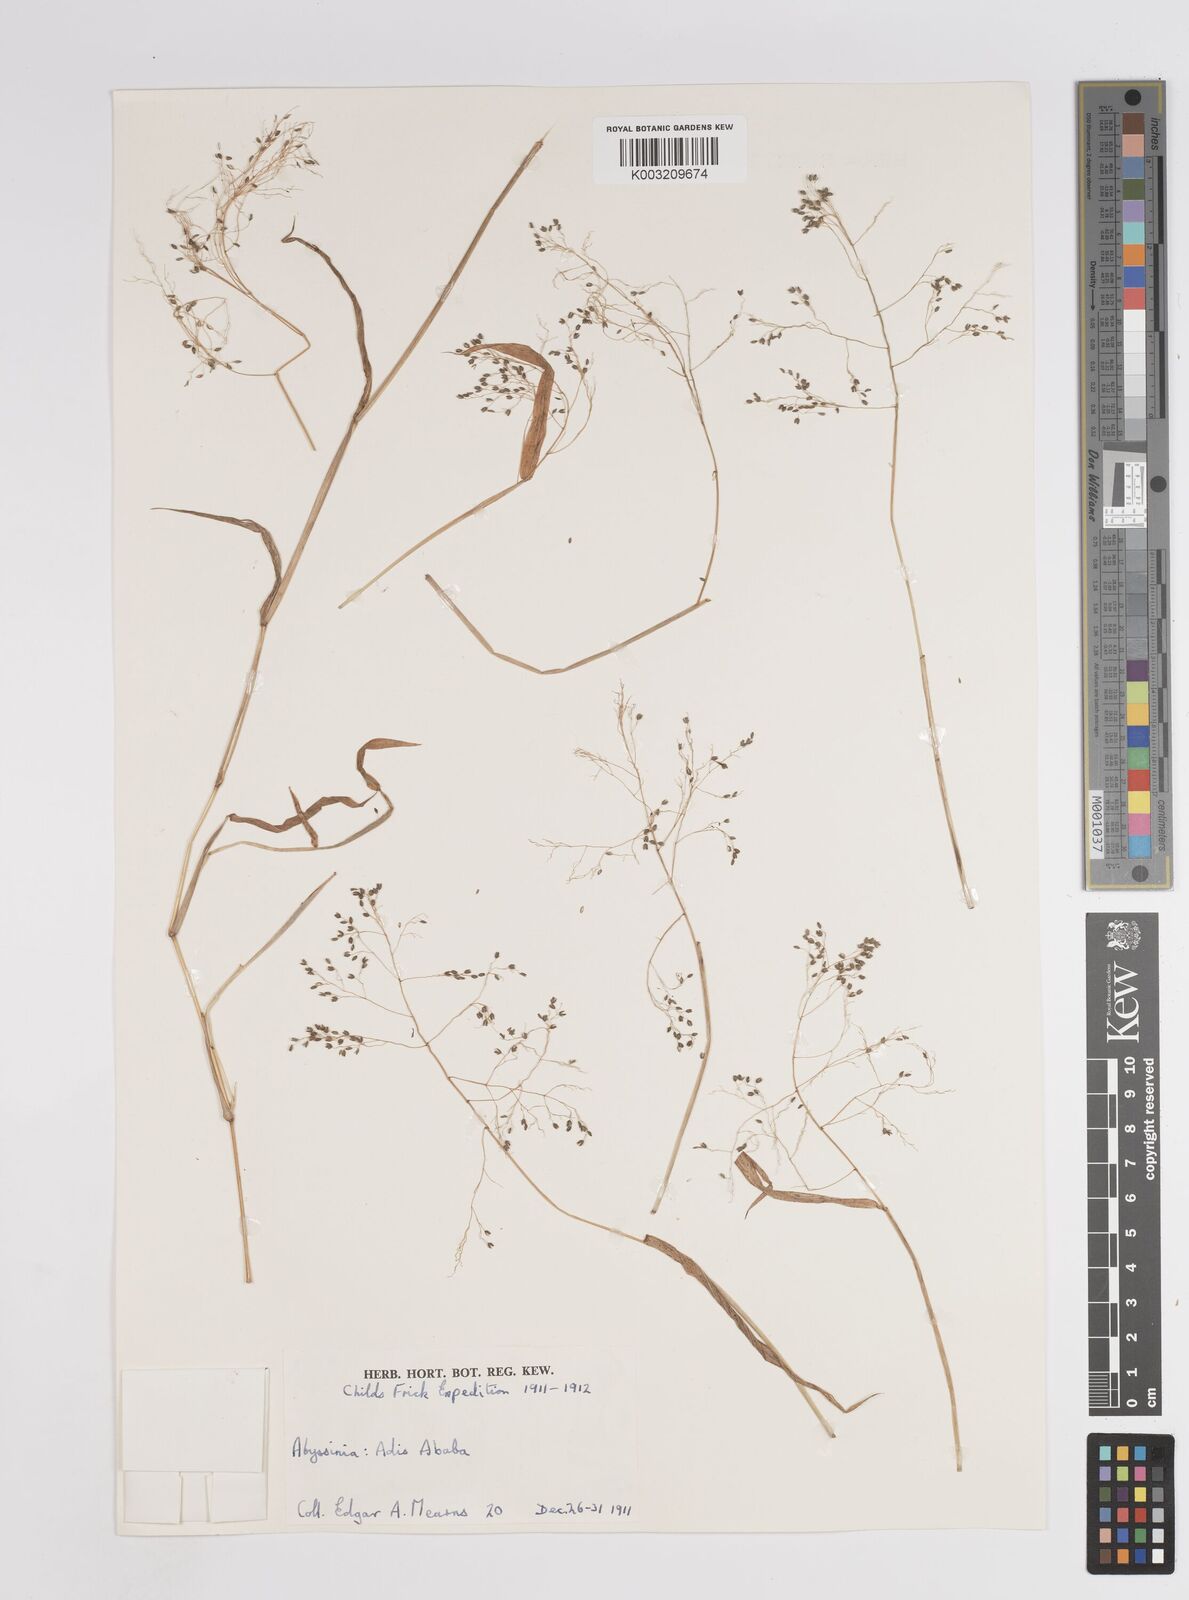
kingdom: Plantae
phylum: Tracheophyta
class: Liliopsida
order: Poales
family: Poaceae
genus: Panicum
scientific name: Panicum hochstetteri
